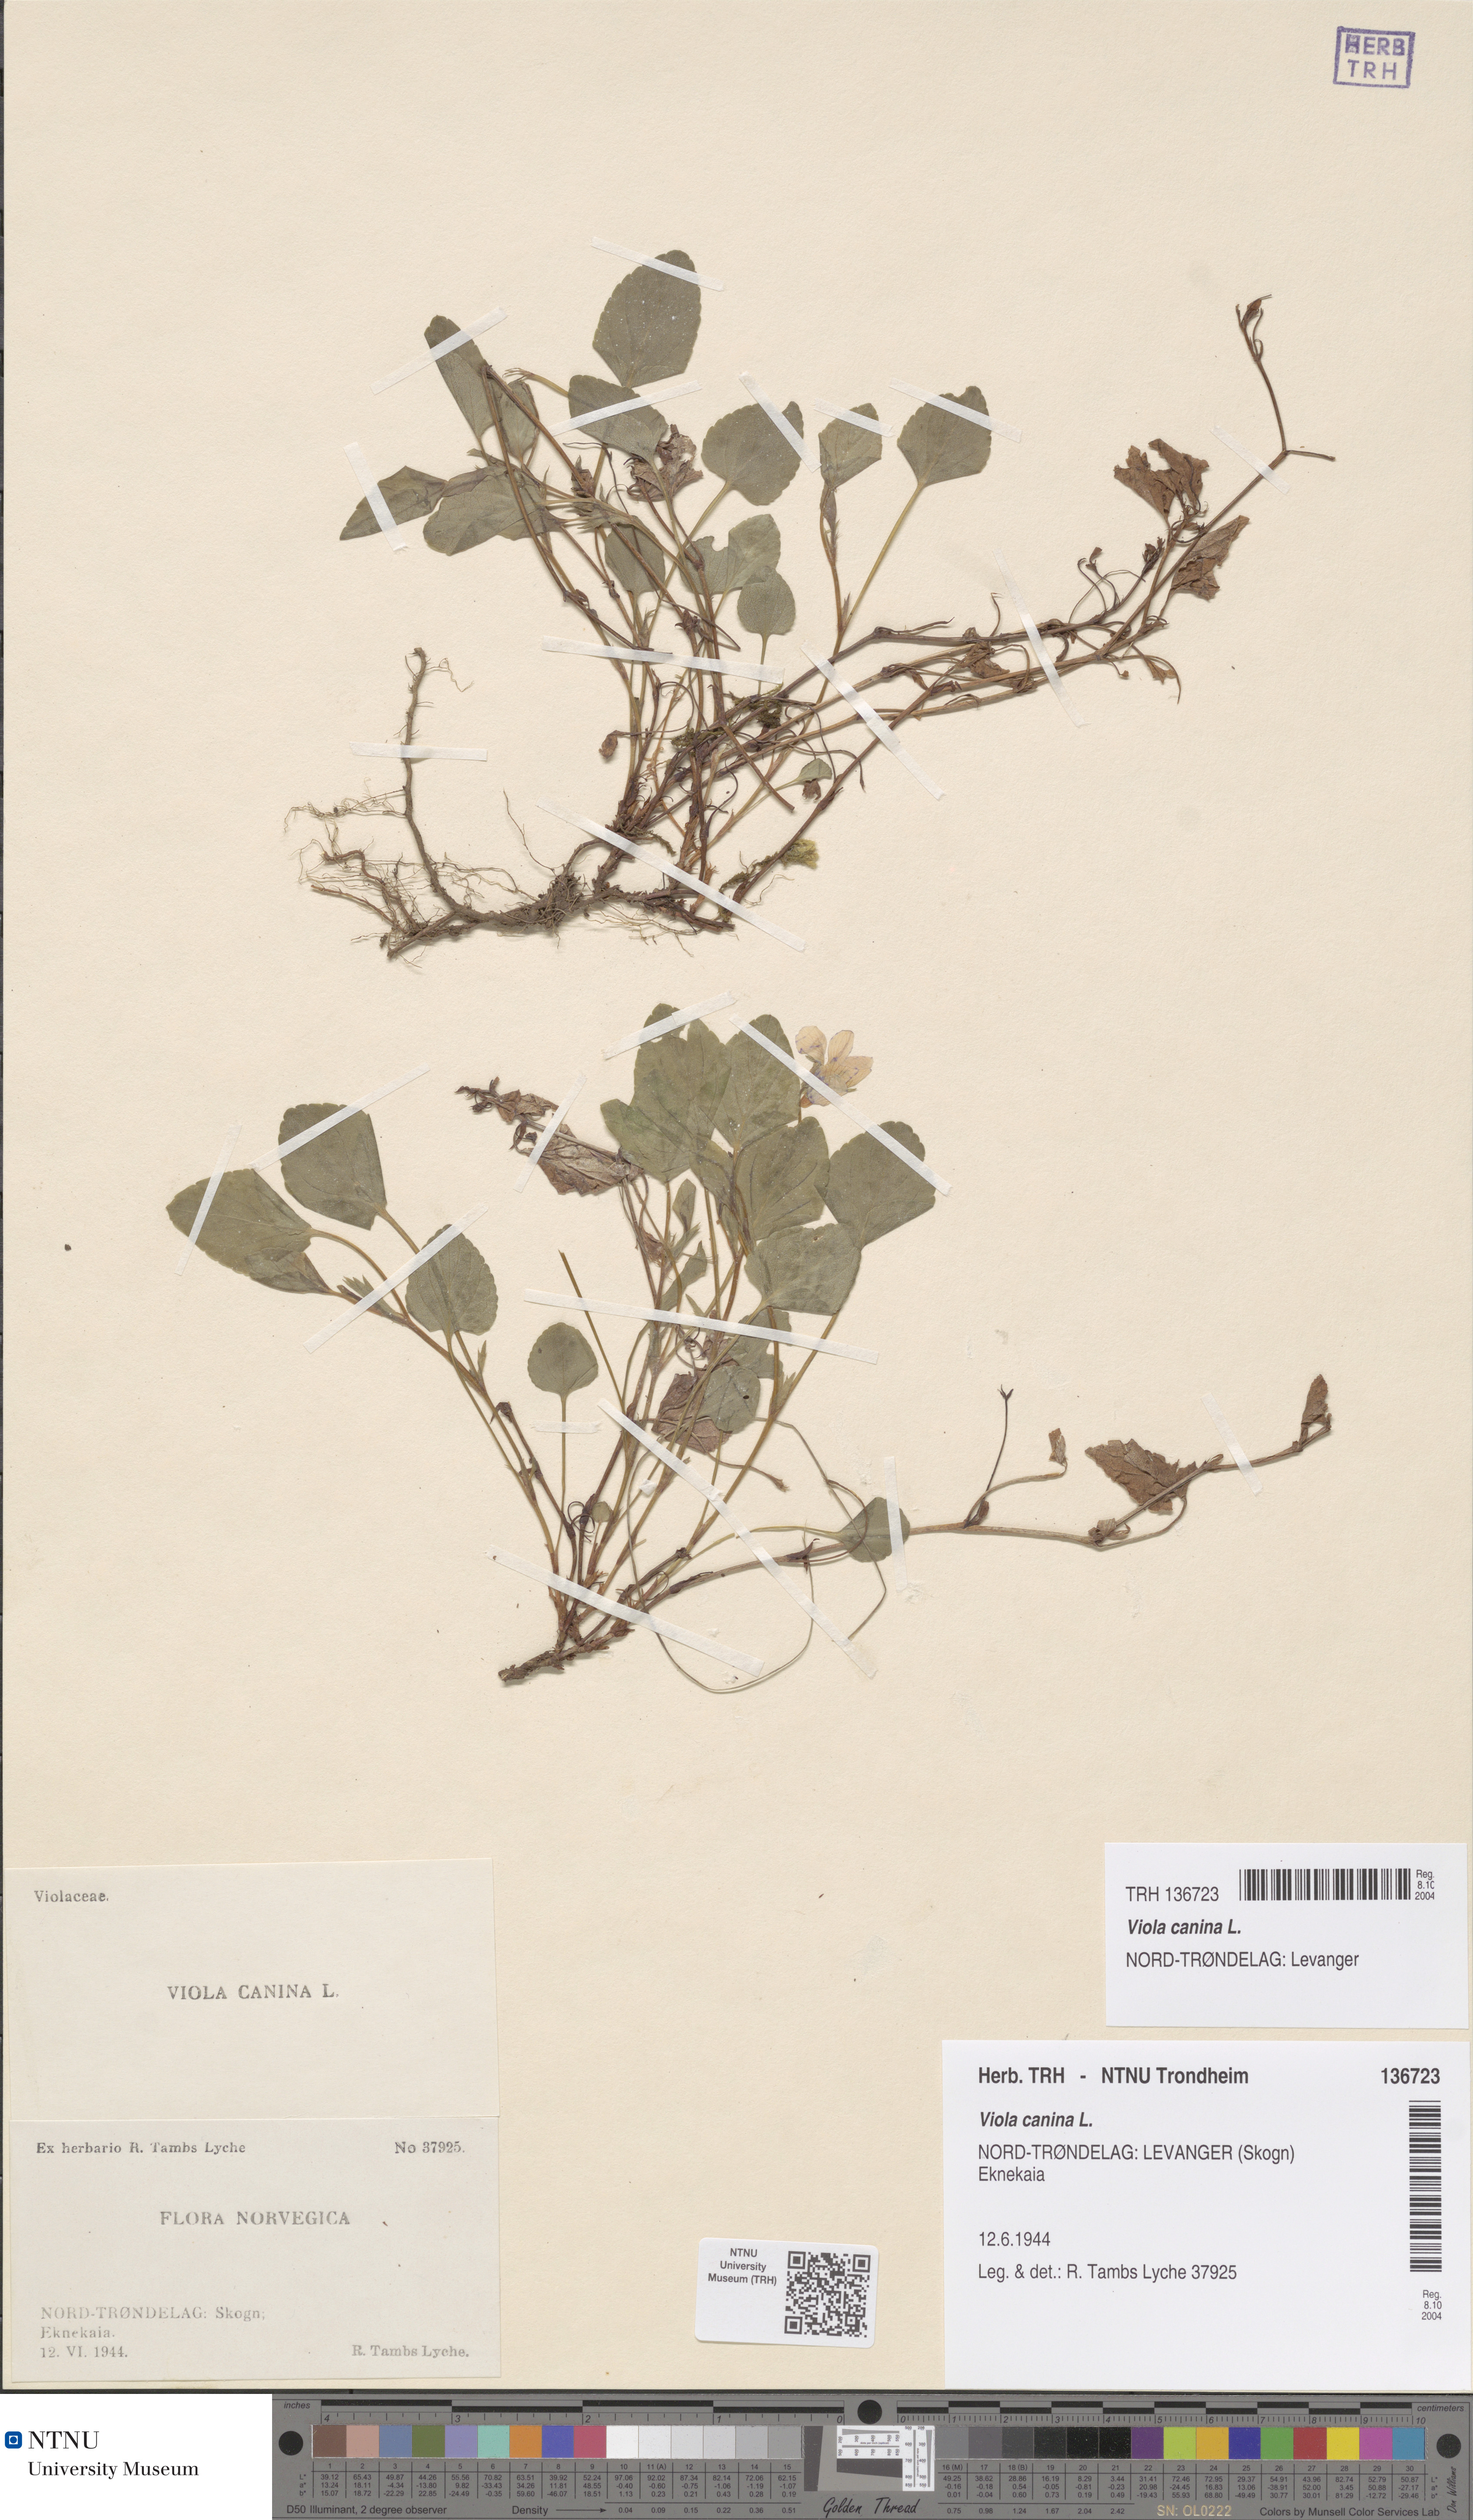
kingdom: Plantae
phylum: Tracheophyta
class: Magnoliopsida
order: Malpighiales
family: Violaceae
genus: Viola
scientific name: Viola canina
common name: Heath dog-violet
